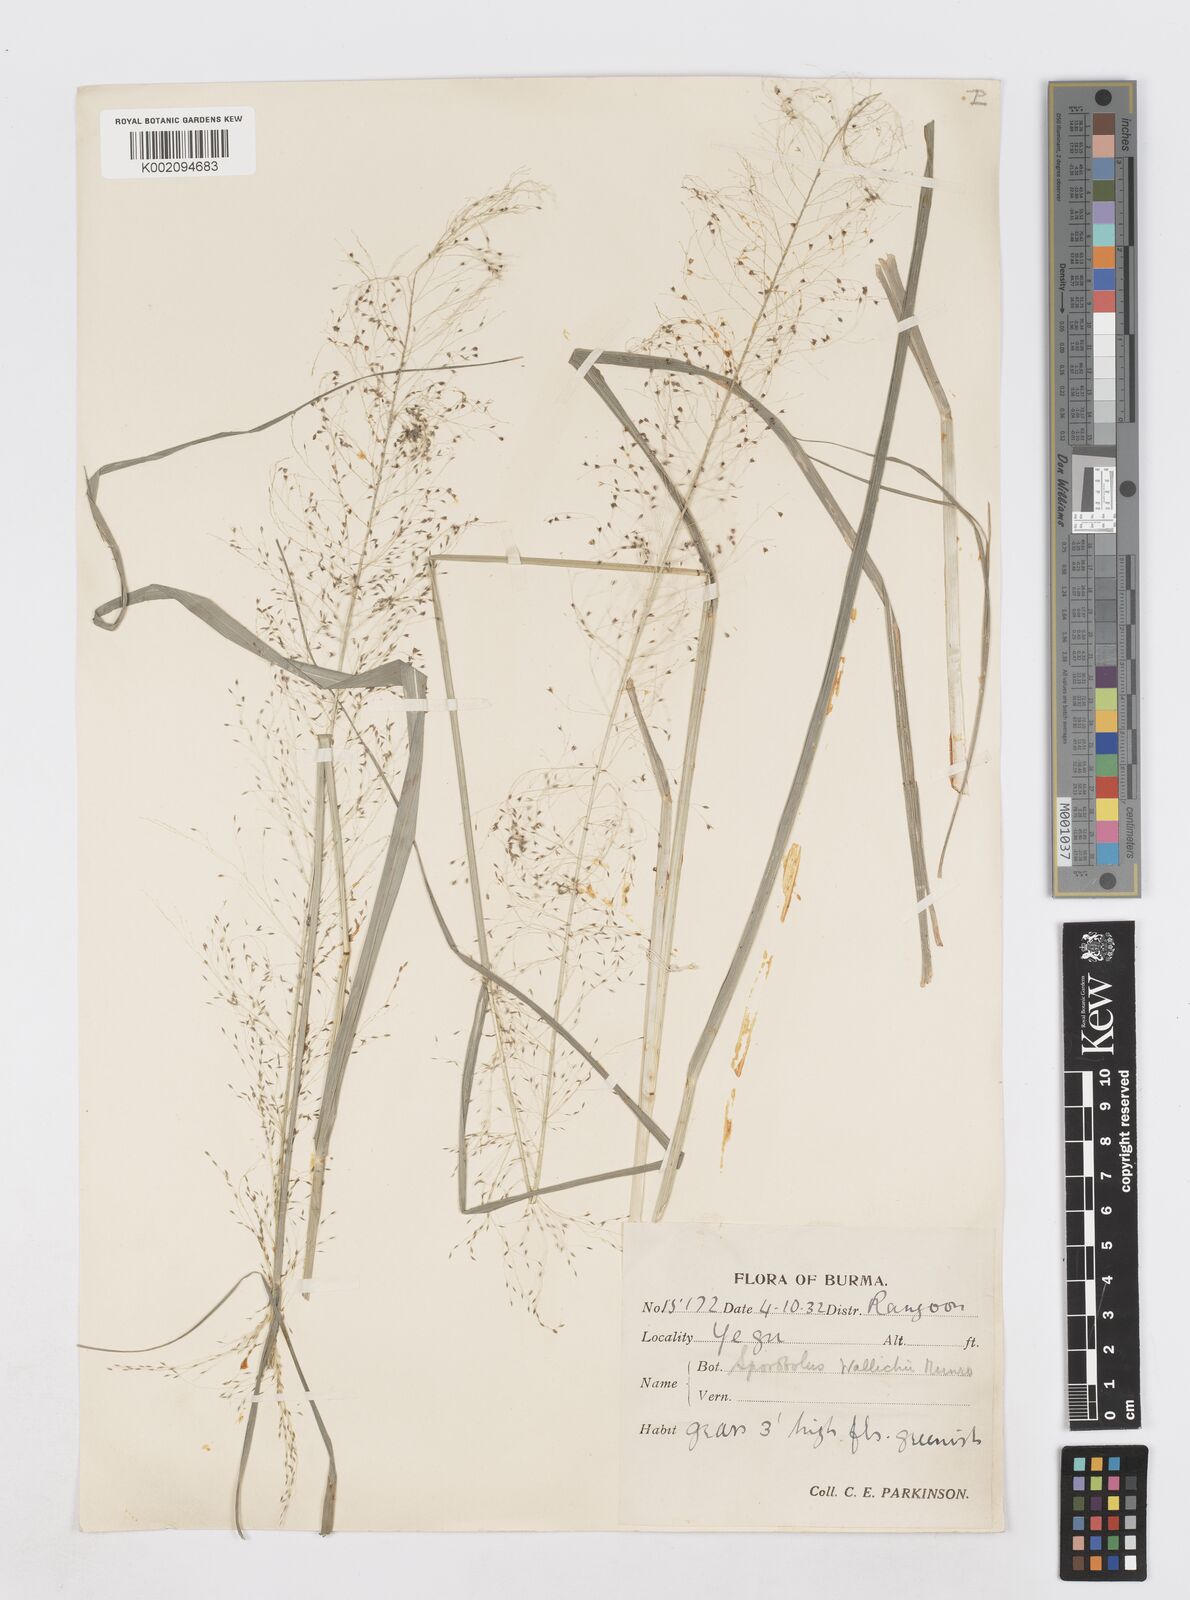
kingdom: Plantae
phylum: Tracheophyta
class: Liliopsida
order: Poales
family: Poaceae
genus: Sporobolus
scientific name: Sporobolus wallichii
